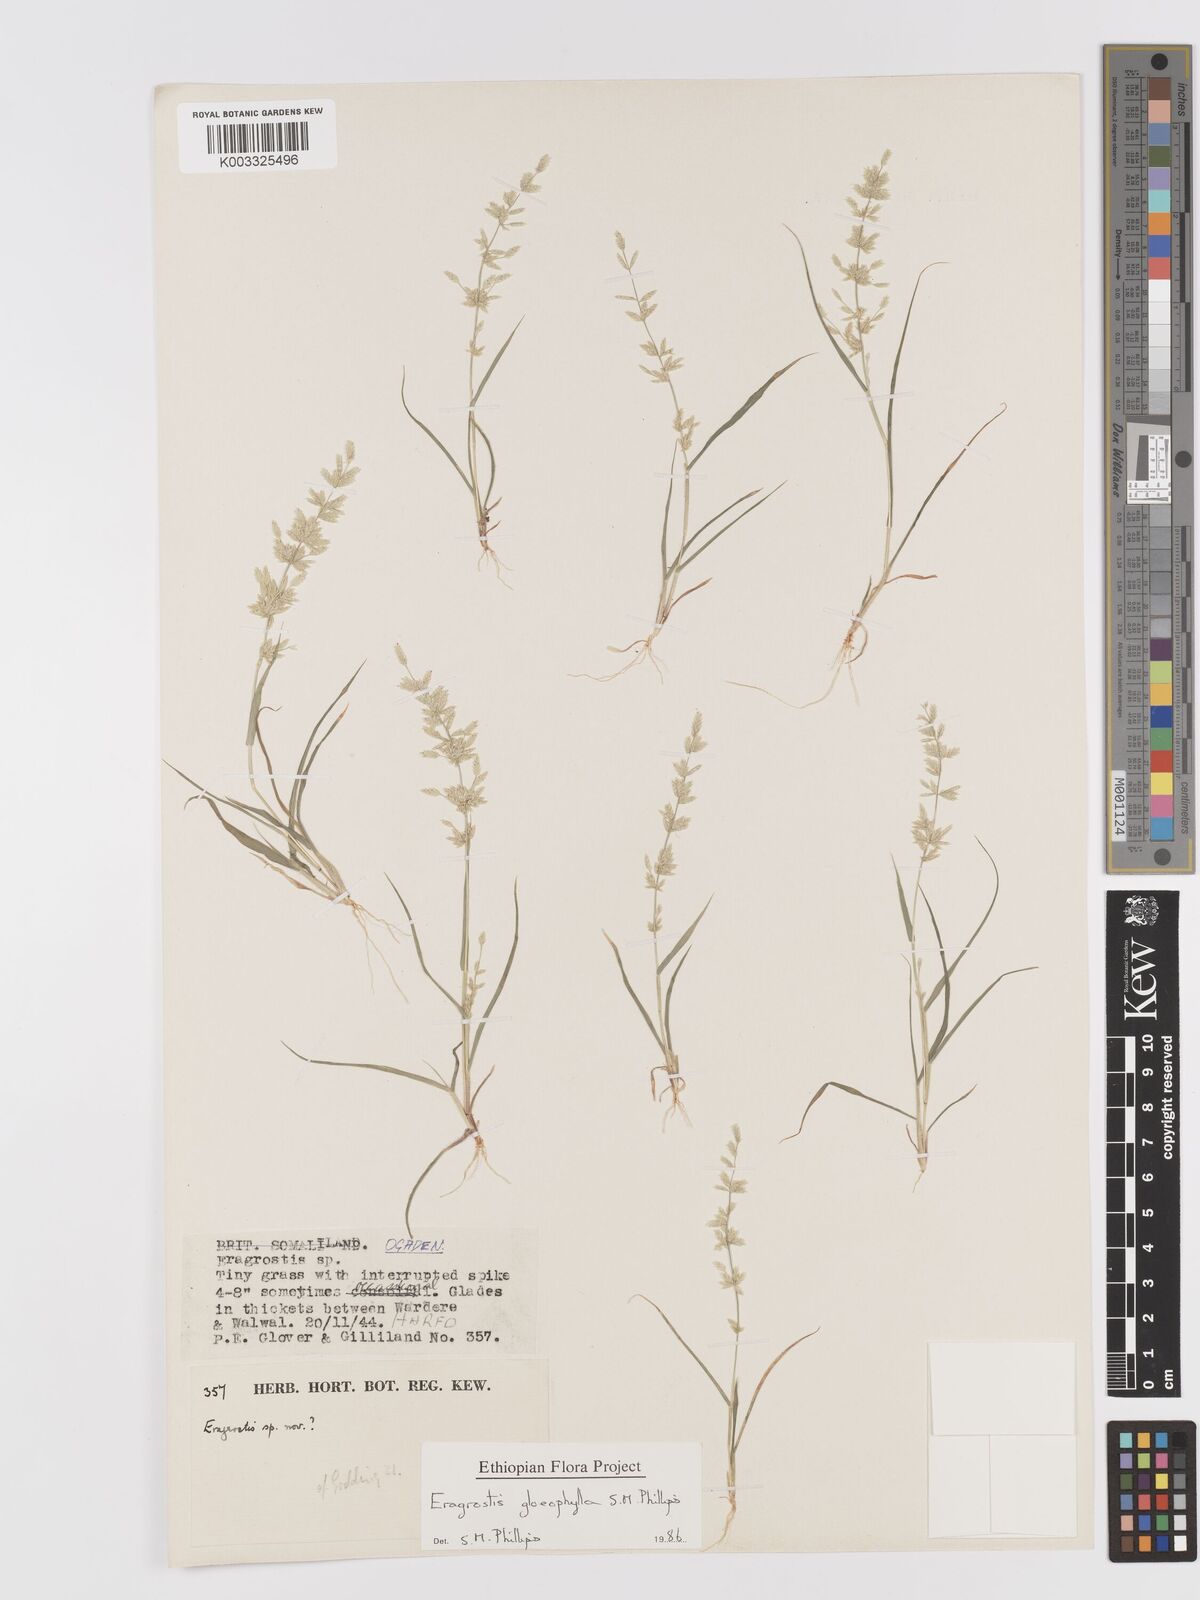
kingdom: Plantae
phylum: Tracheophyta
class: Liliopsida
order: Poales
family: Poaceae
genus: Eragrostis
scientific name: Eragrostis gloeophylla
